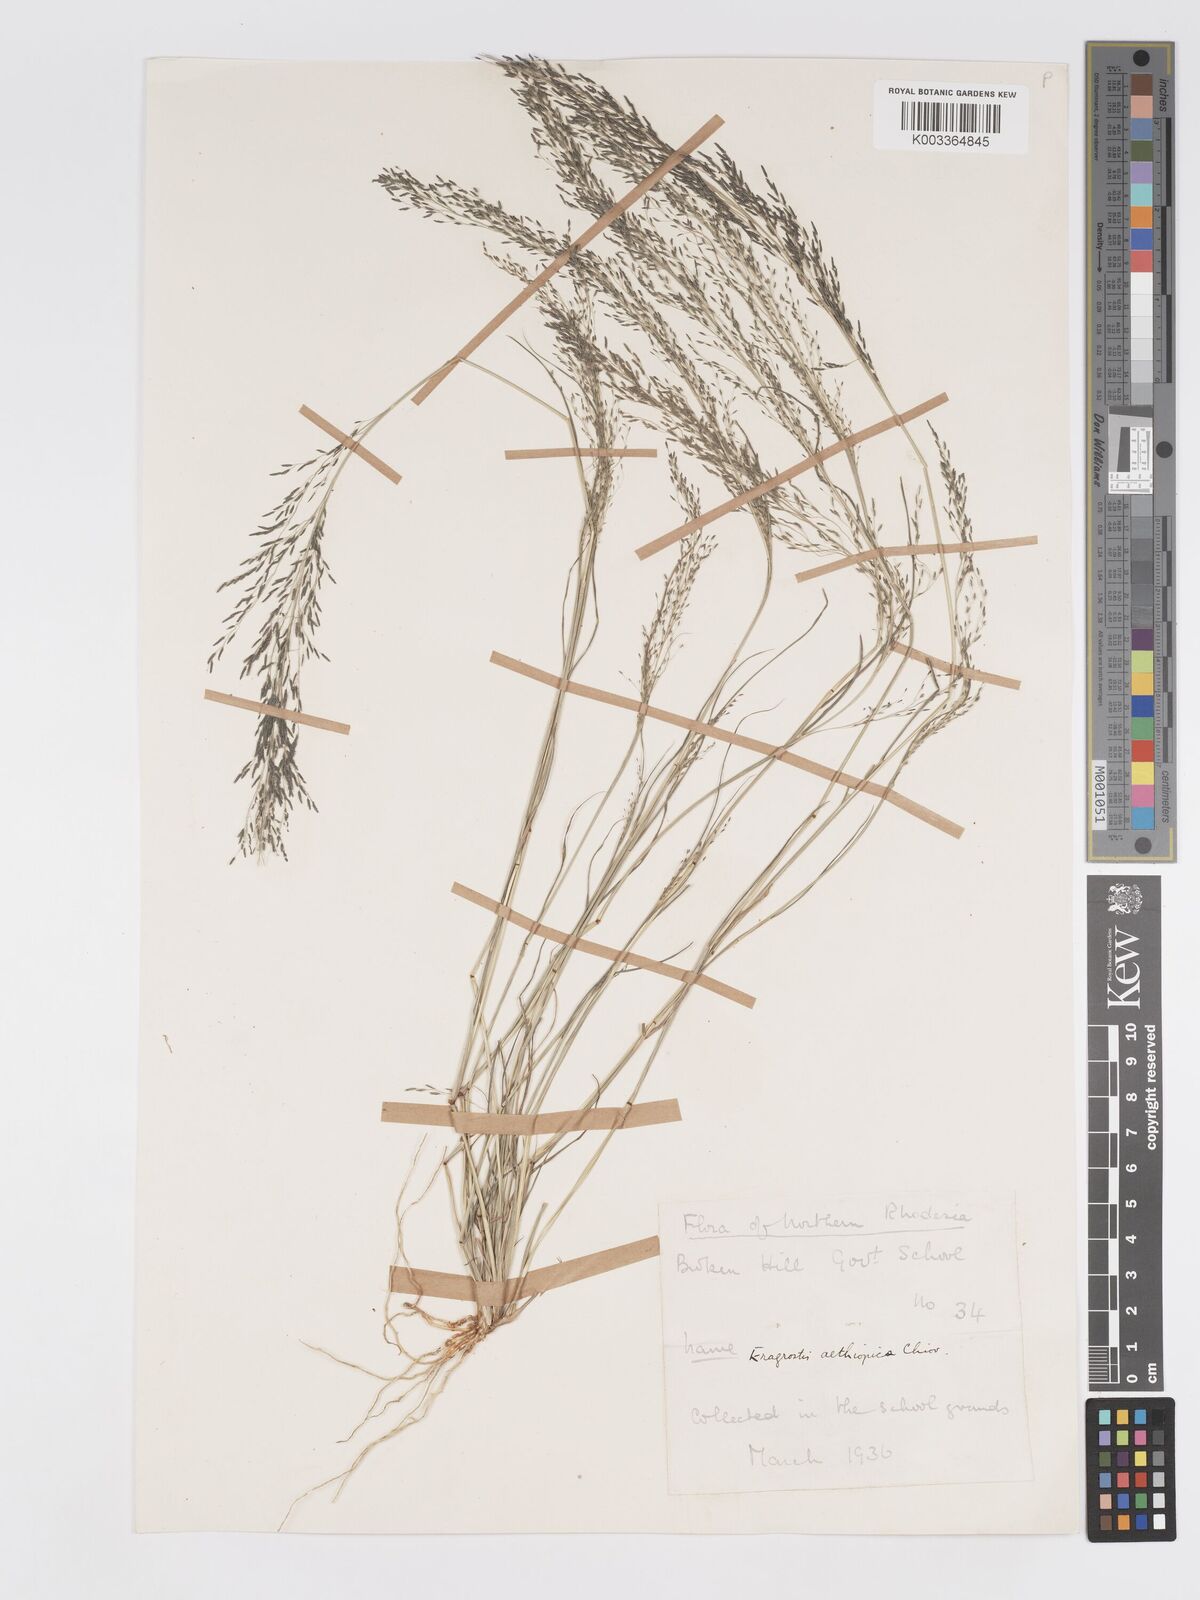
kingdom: Plantae
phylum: Tracheophyta
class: Liliopsida
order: Poales
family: Poaceae
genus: Eragrostis
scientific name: Eragrostis aethiopica
